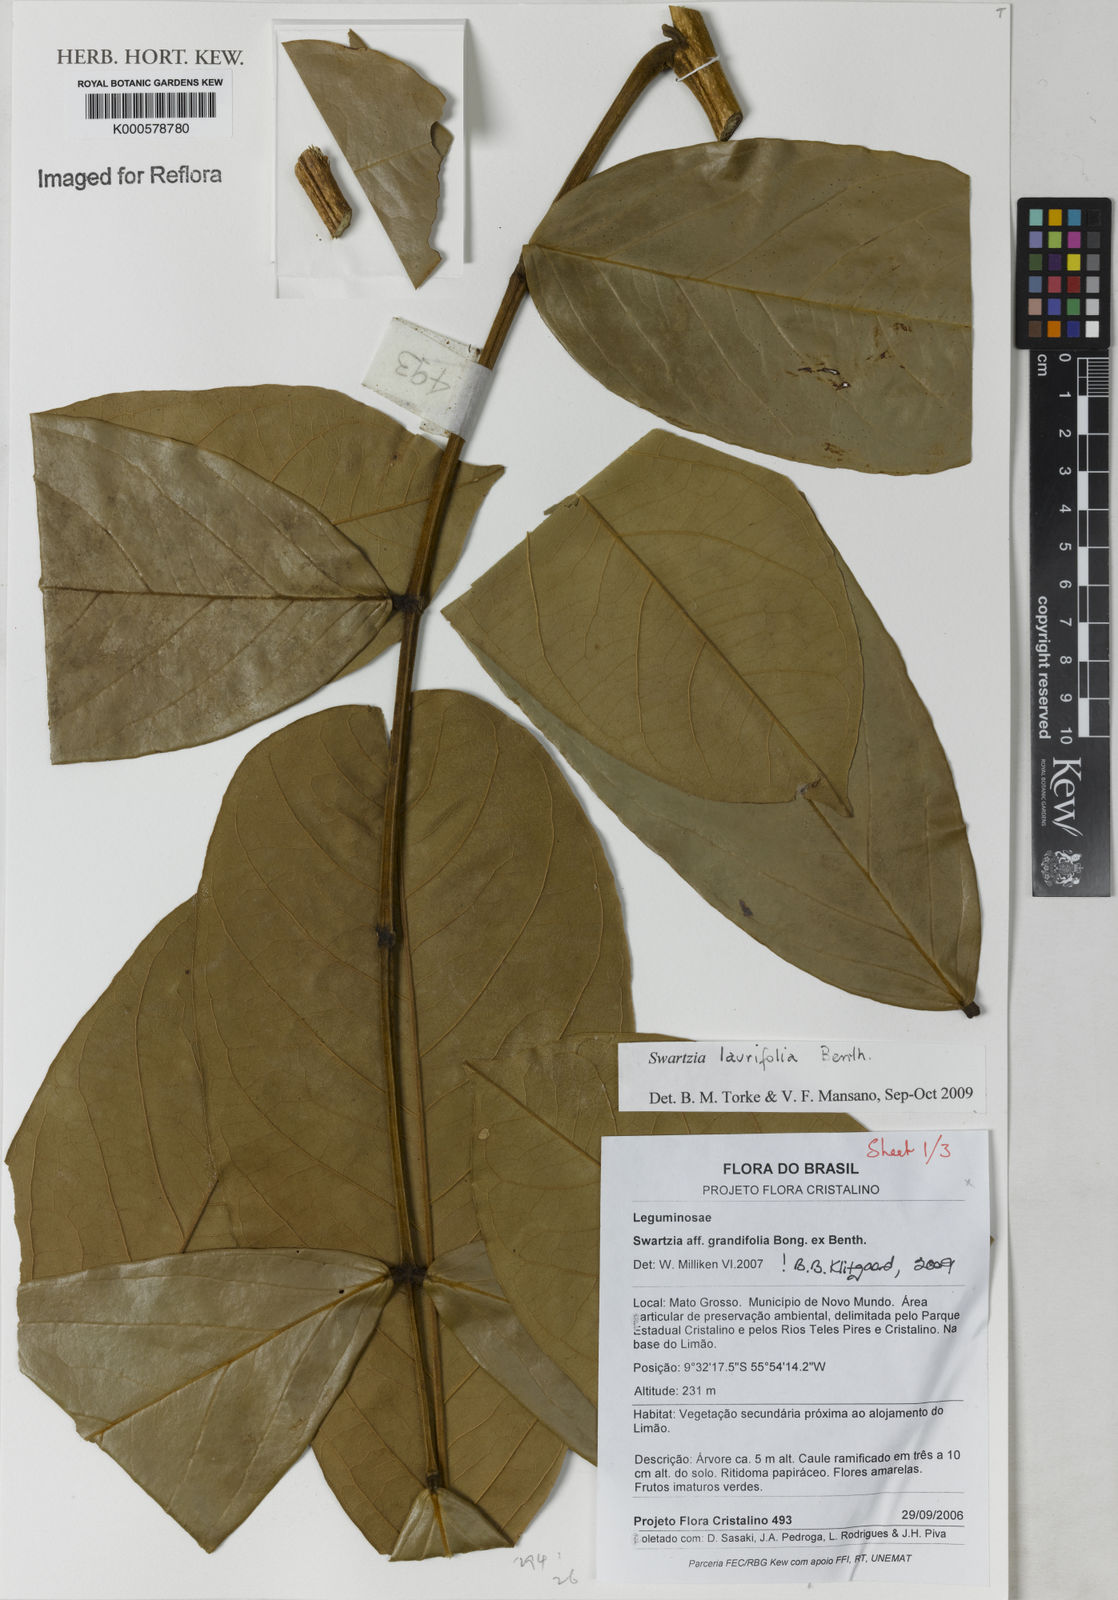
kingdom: Plantae
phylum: Tracheophyta
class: Magnoliopsida
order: Fabales
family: Fabaceae
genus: Swartzia
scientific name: Swartzia laurifolia
